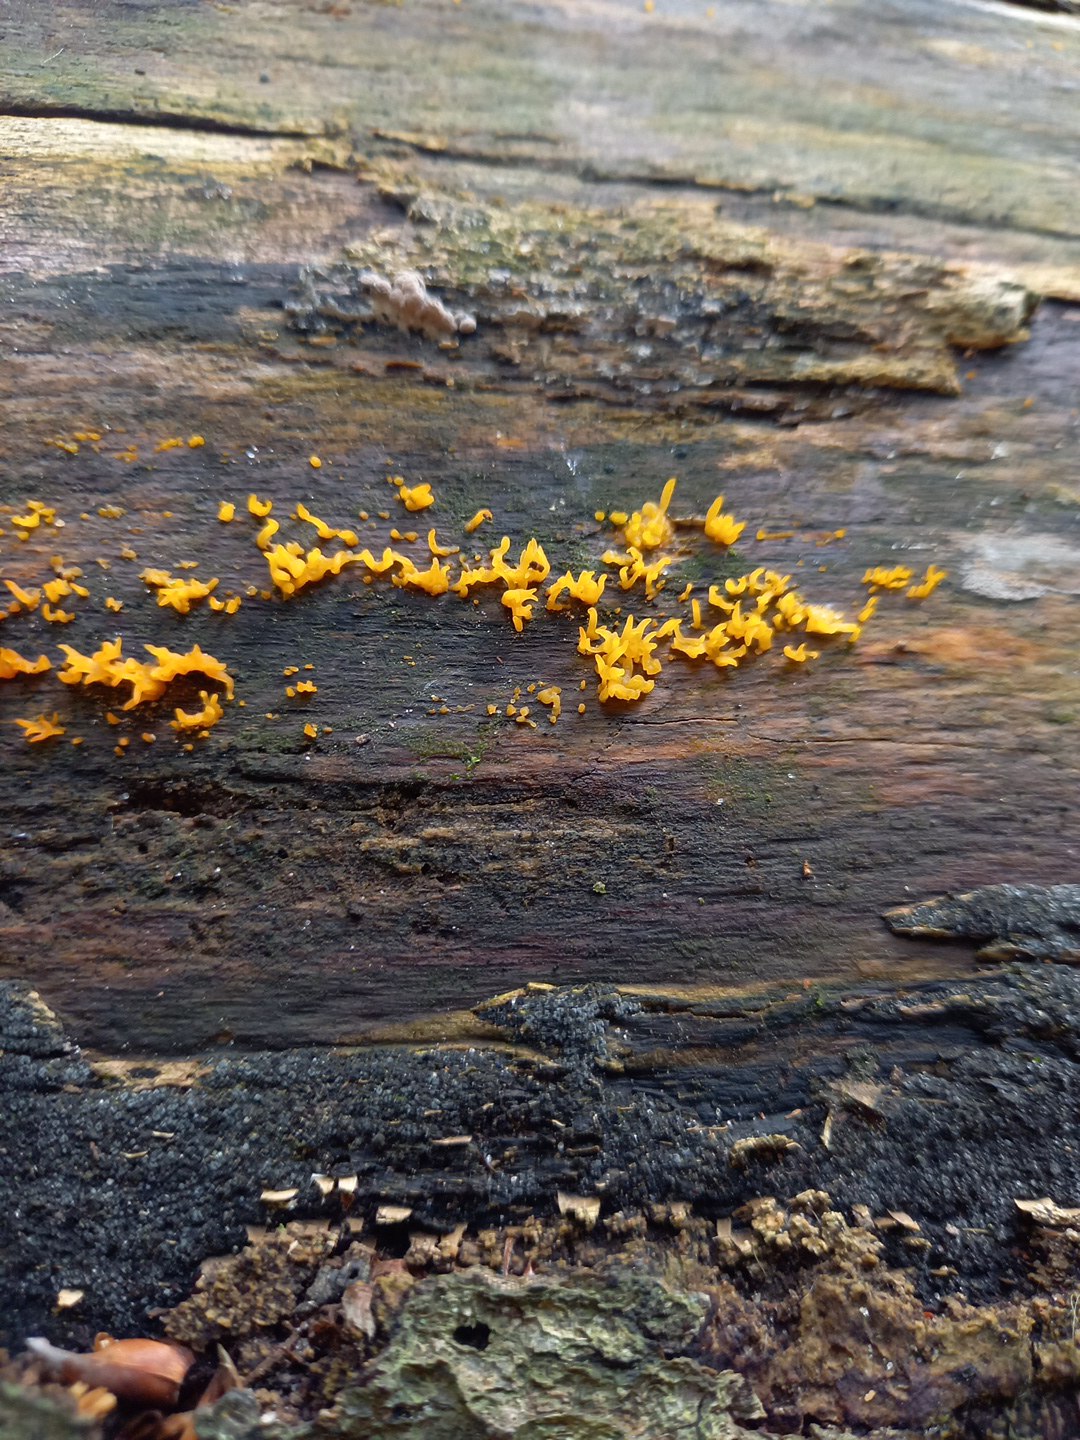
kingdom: Fungi
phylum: Basidiomycota
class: Dacrymycetes
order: Dacrymycetales
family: Dacrymycetaceae
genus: Calocera
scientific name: Calocera cornea
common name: liden guldgaffel
